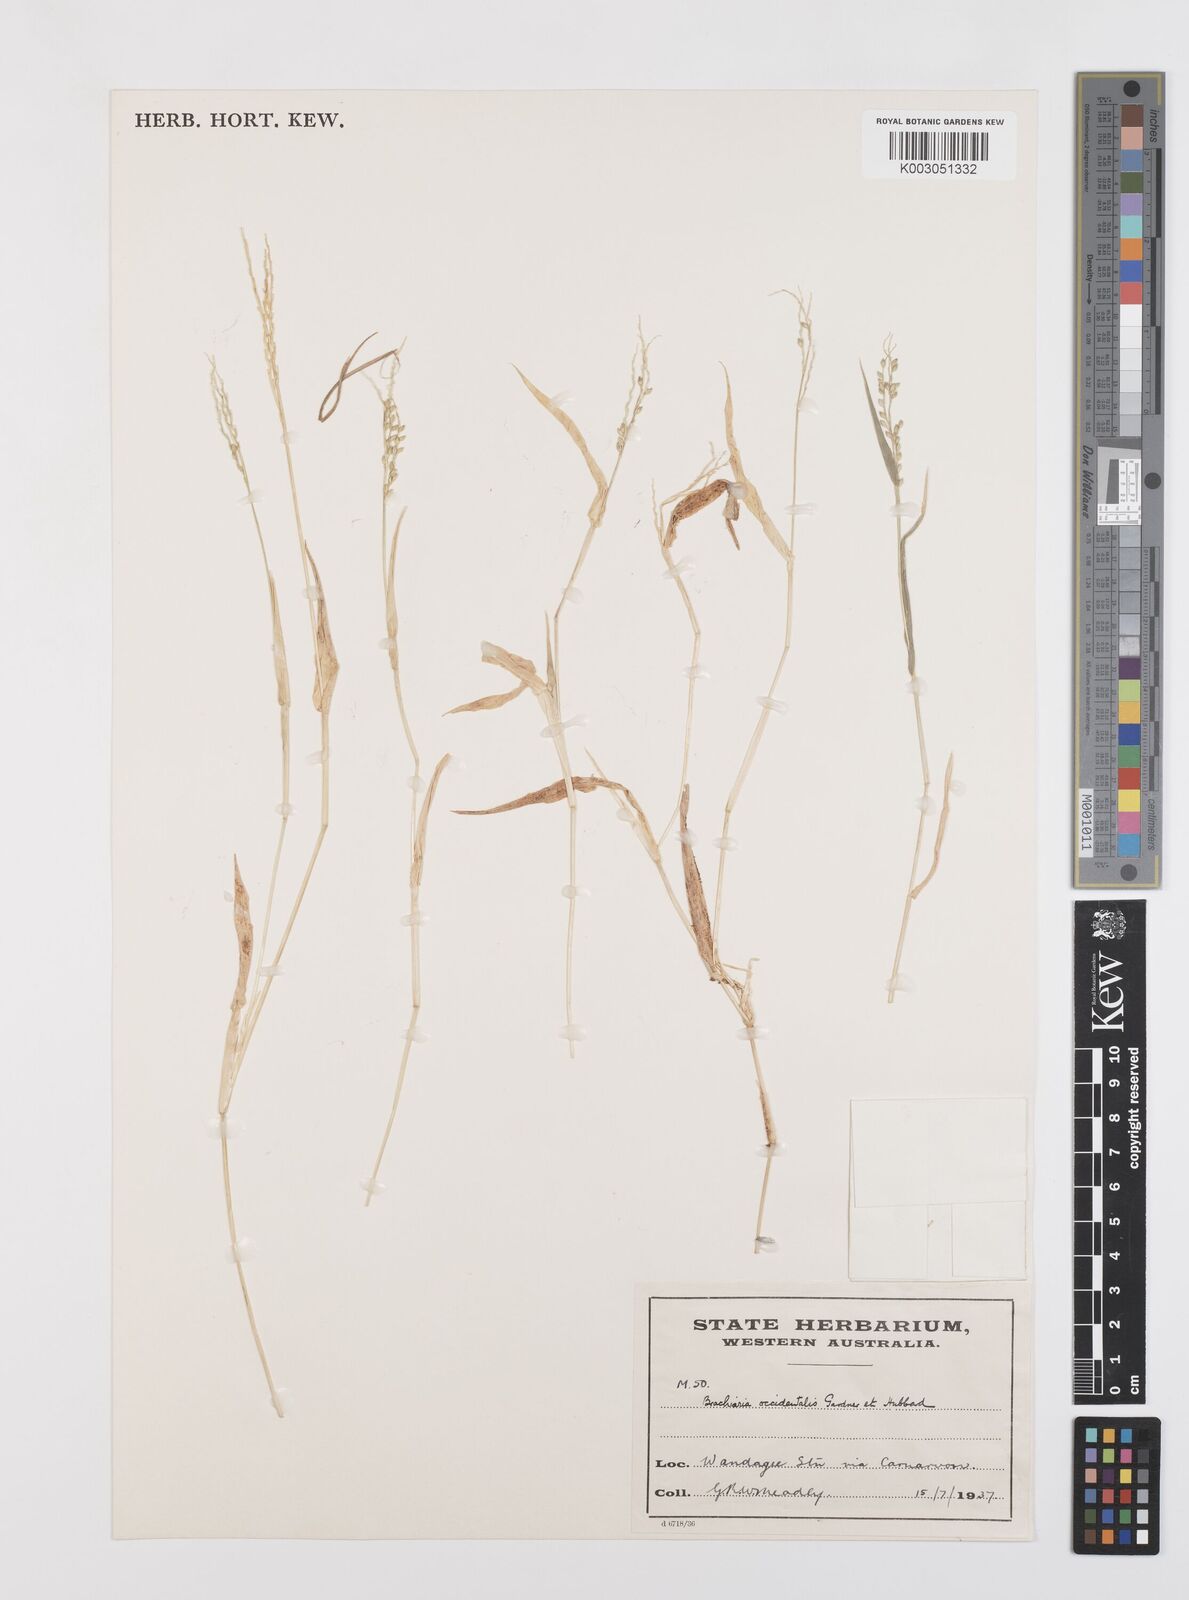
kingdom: Plantae
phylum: Tracheophyta
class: Liliopsida
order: Poales
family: Poaceae
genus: Urochloa
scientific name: Urochloa occidentalis
